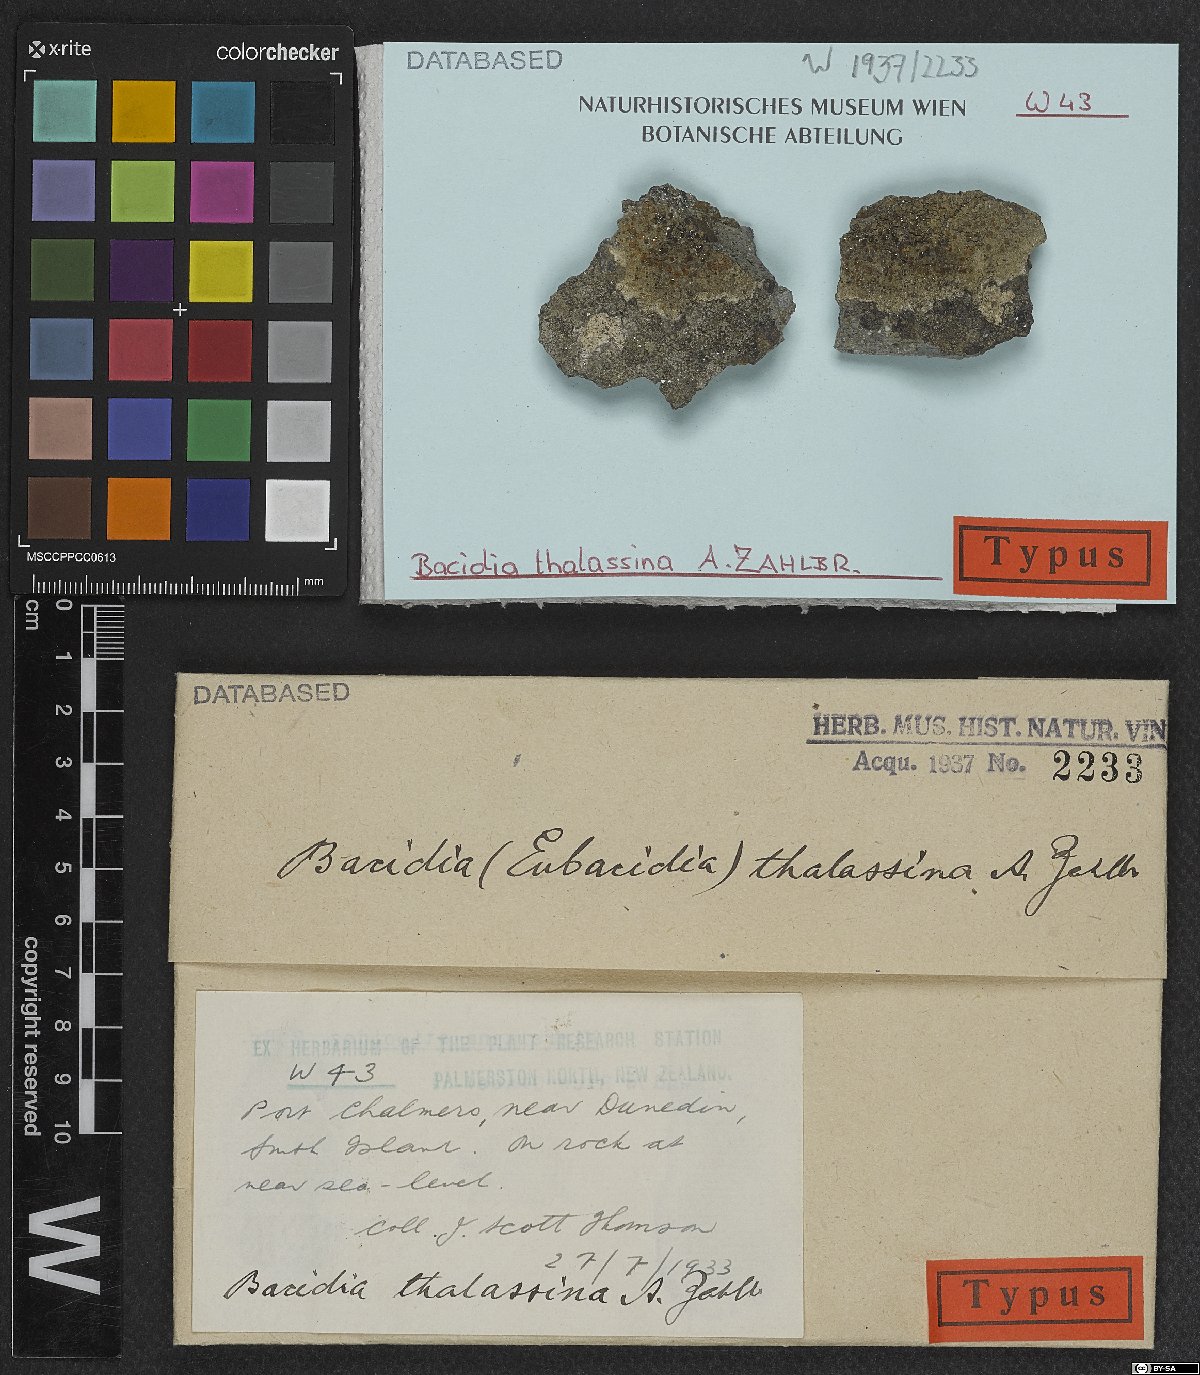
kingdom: Fungi
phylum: Ascomycota
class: Lecanoromycetes
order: Lecanorales
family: Ramalinaceae
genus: Bacidia
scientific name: Bacidia
